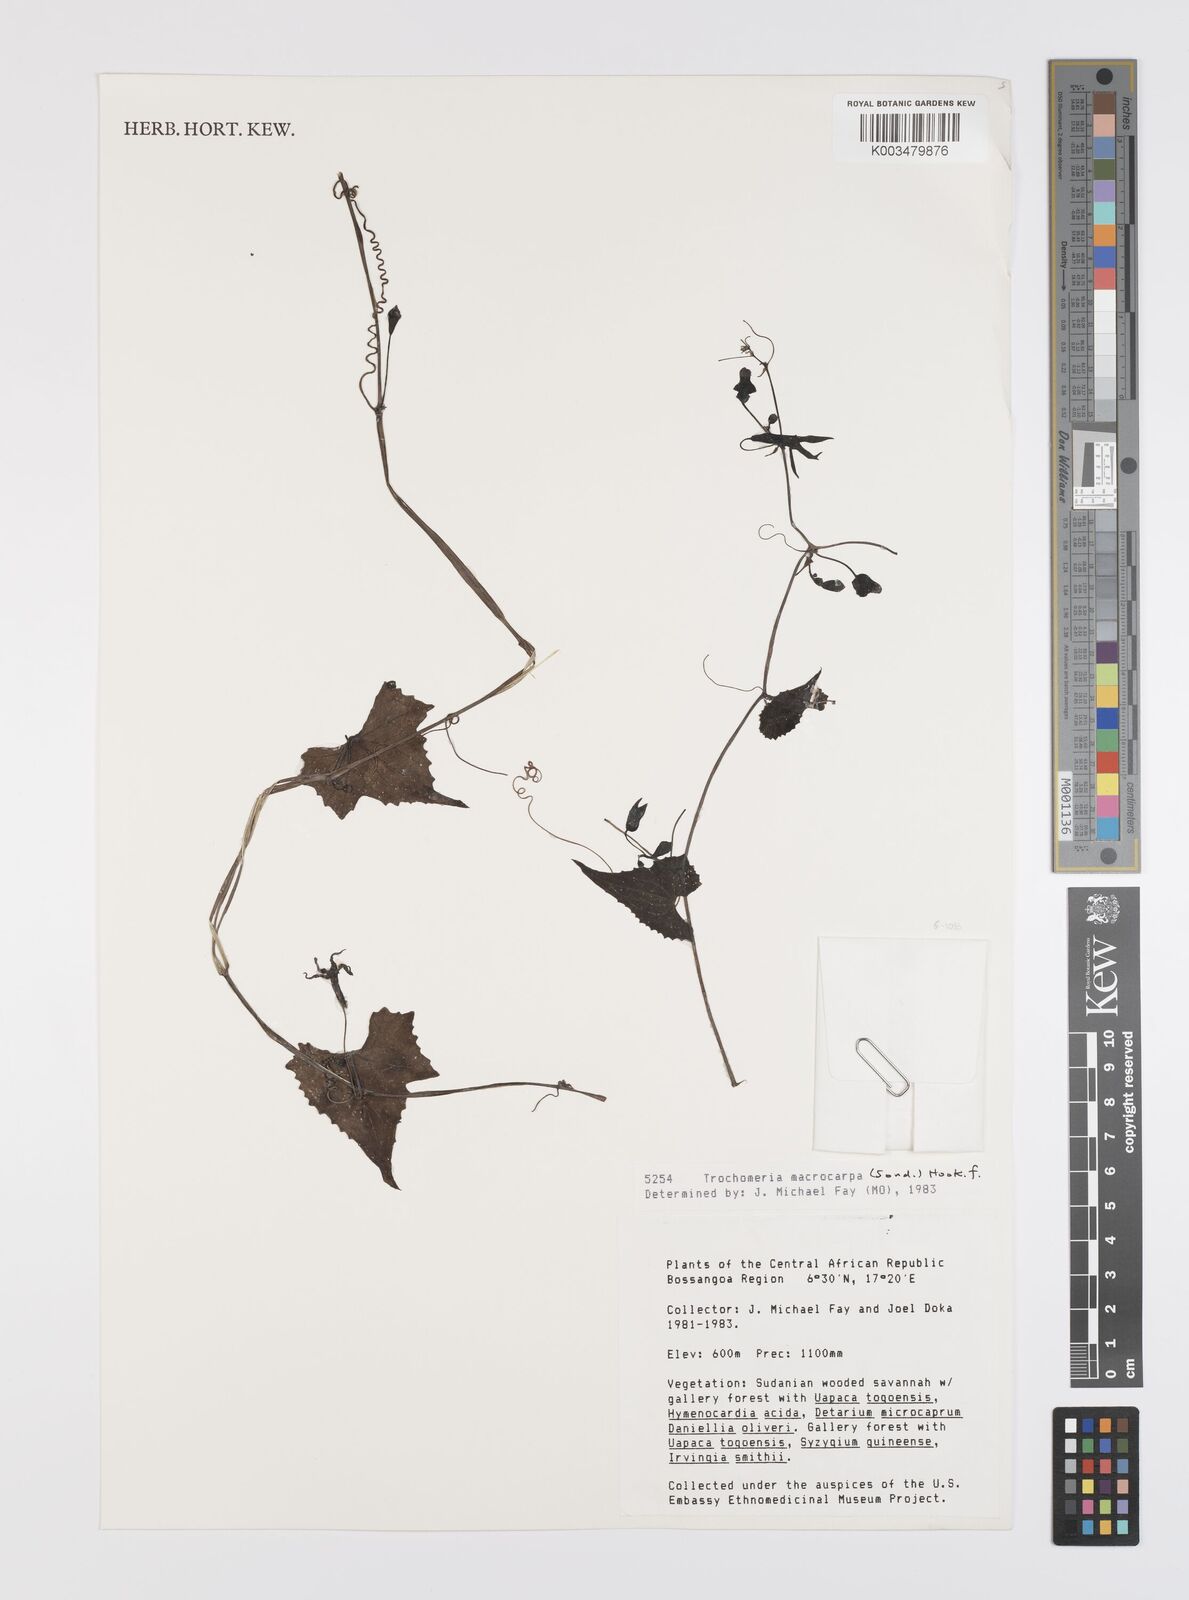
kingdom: Plantae
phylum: Tracheophyta
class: Magnoliopsida
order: Cucurbitales
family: Cucurbitaceae
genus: Trochomeria
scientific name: Trochomeria macrocarpa
